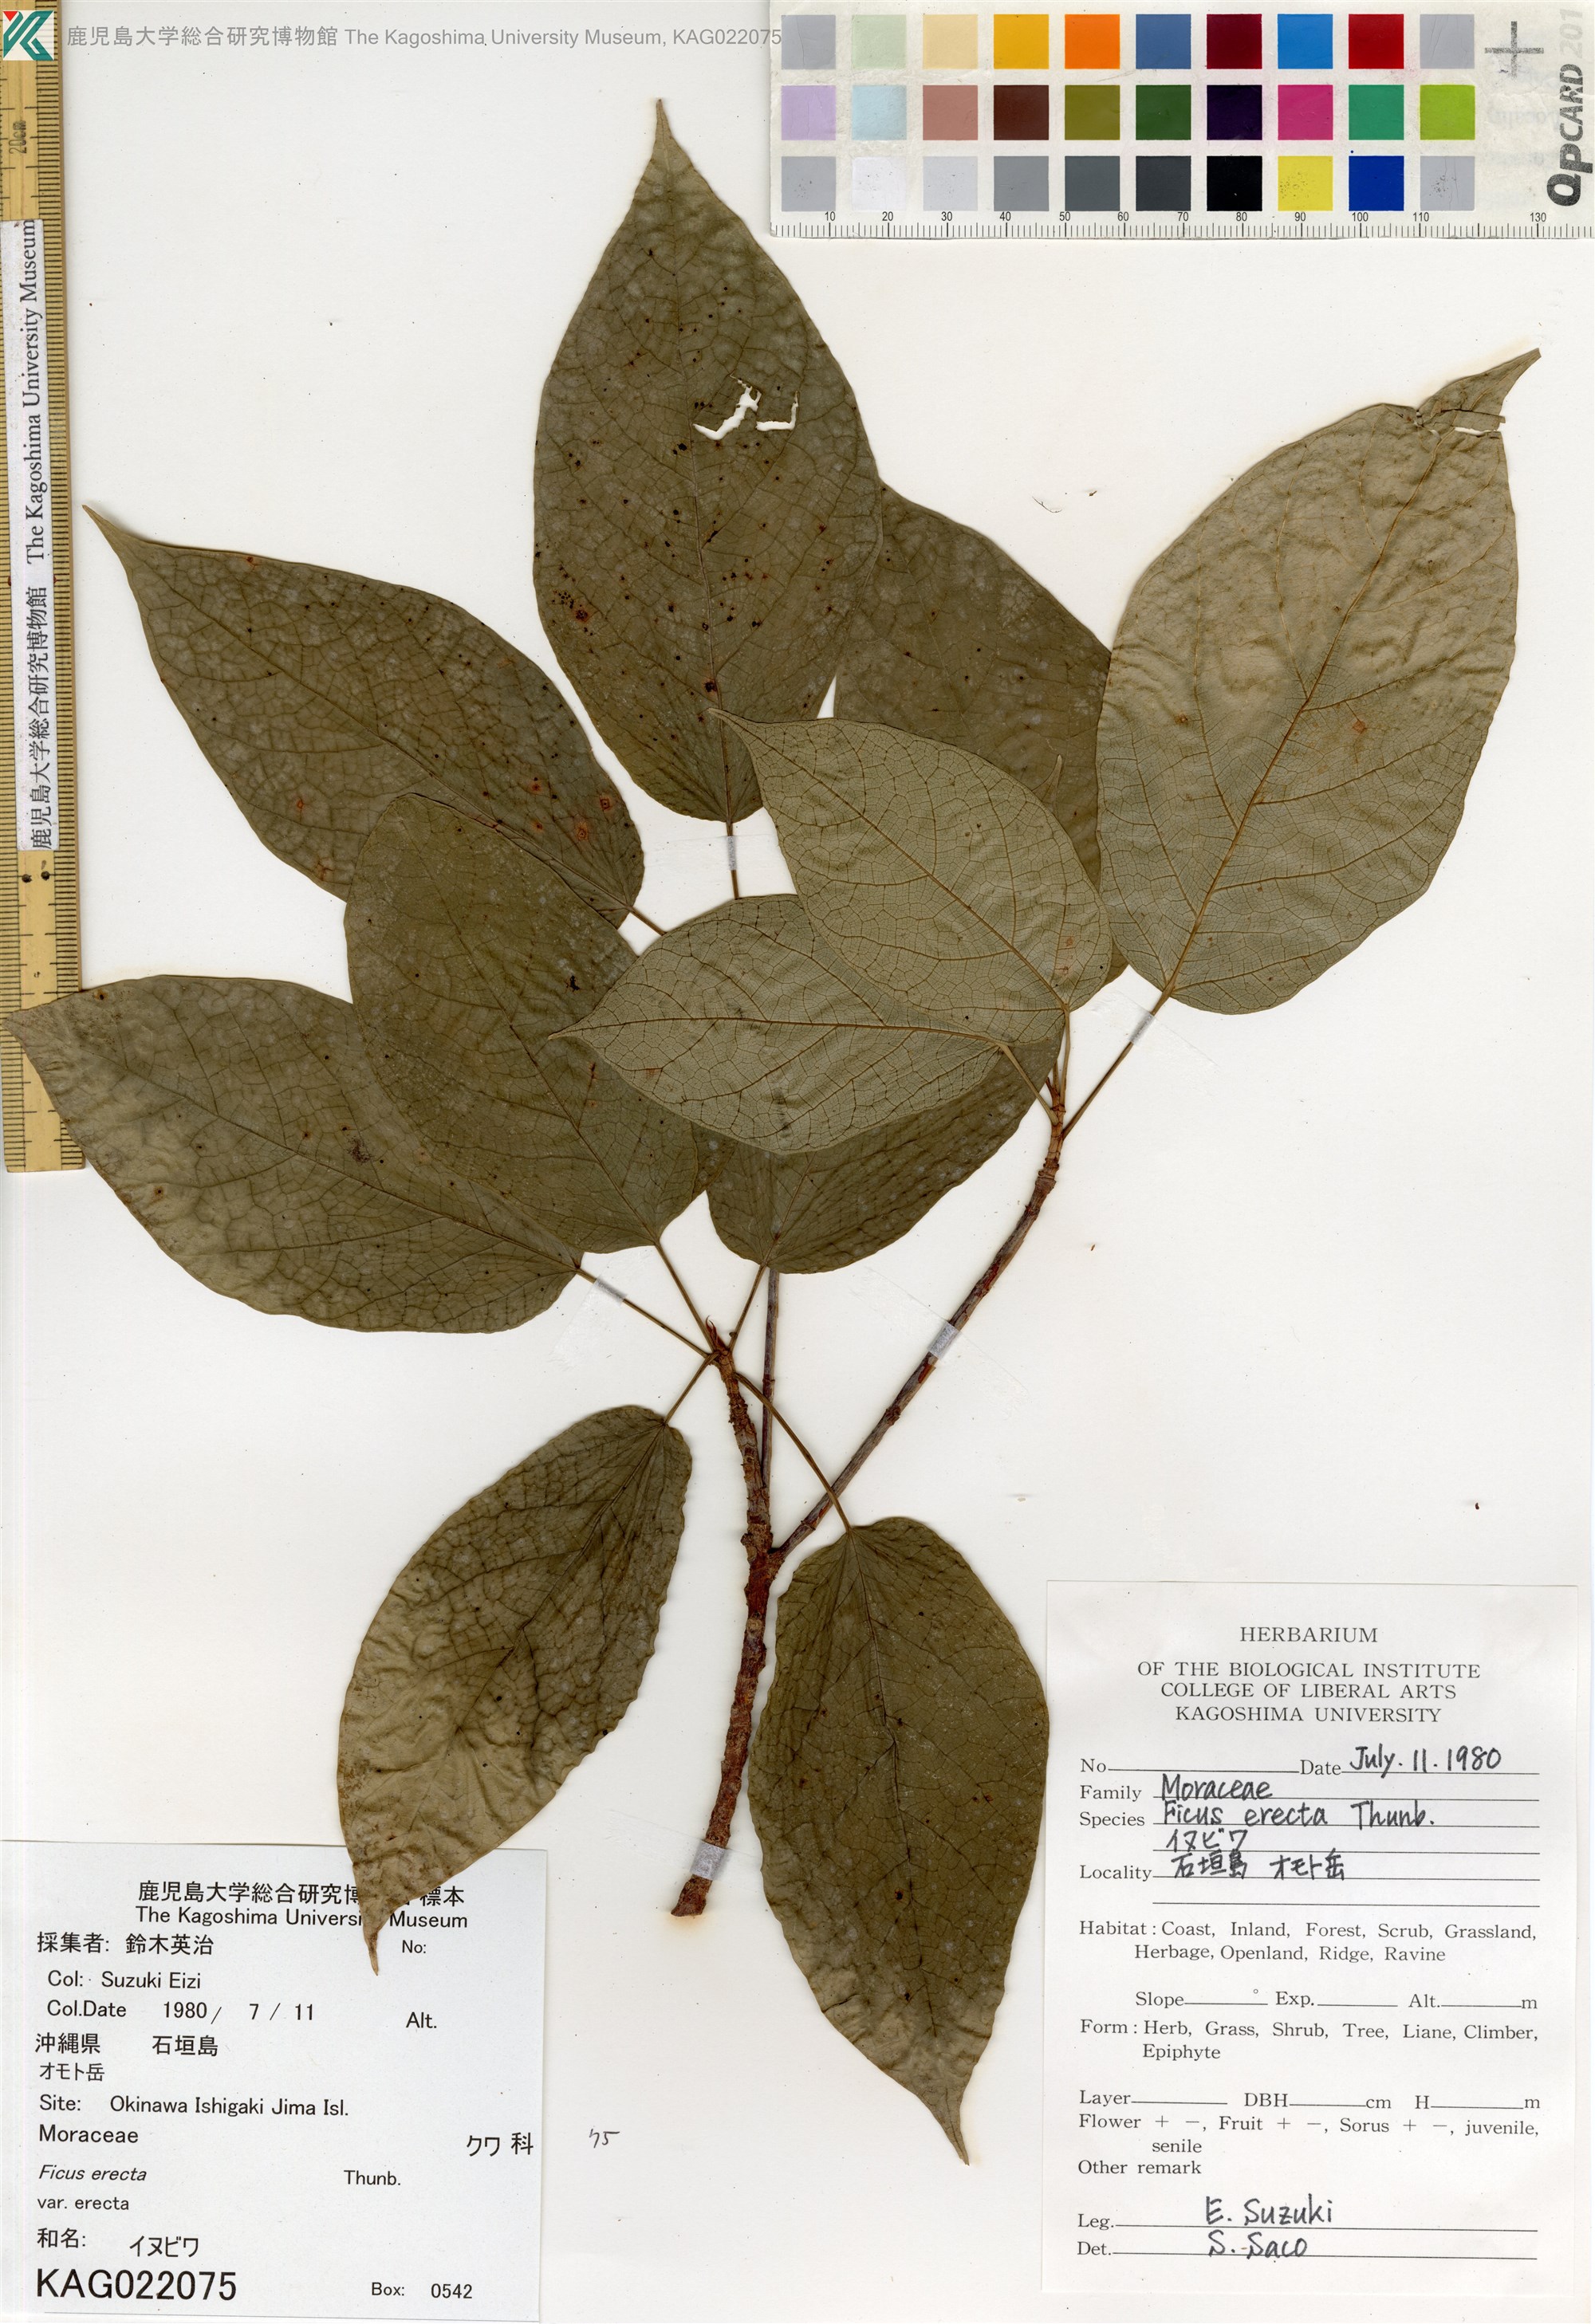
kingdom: Plantae
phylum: Tracheophyta
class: Magnoliopsida
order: Rosales
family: Moraceae
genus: Ficus
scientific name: Ficus erecta
